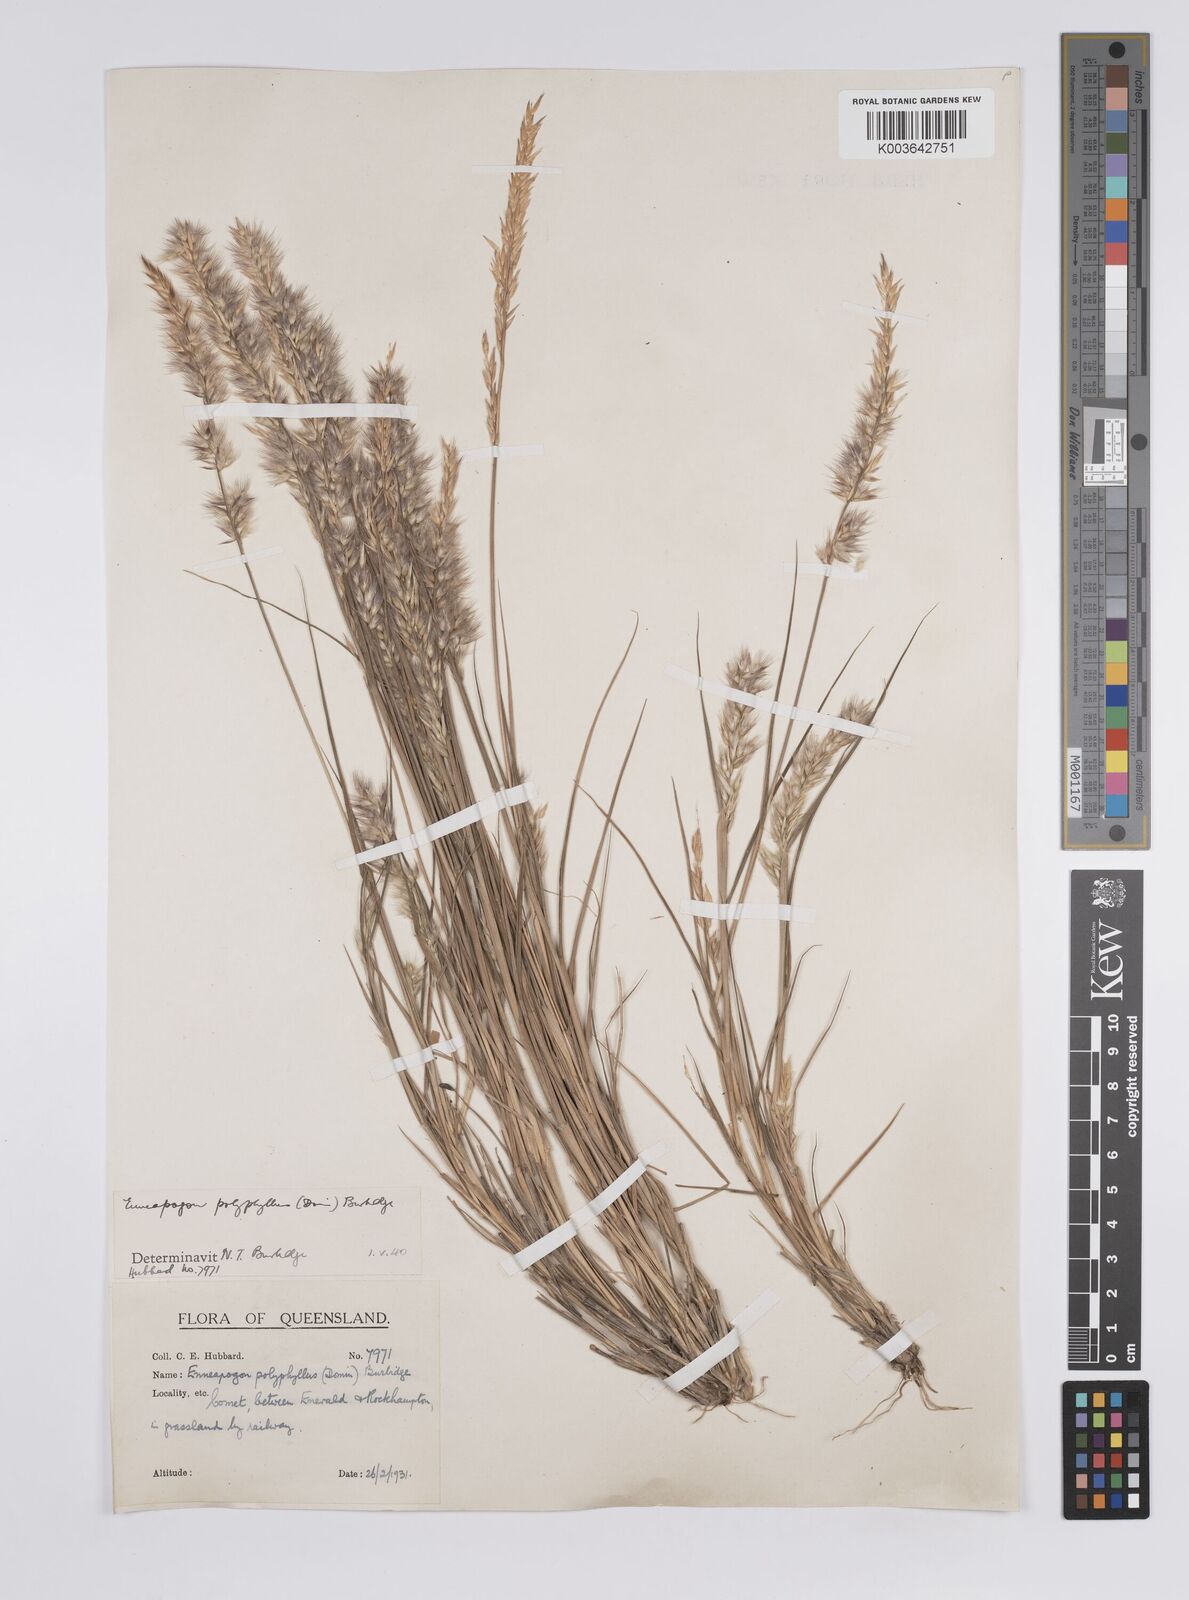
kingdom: Plantae
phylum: Tracheophyta
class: Liliopsida
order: Poales
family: Poaceae
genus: Enneapogon
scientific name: Enneapogon polyphyllus
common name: Leafy nineawn
